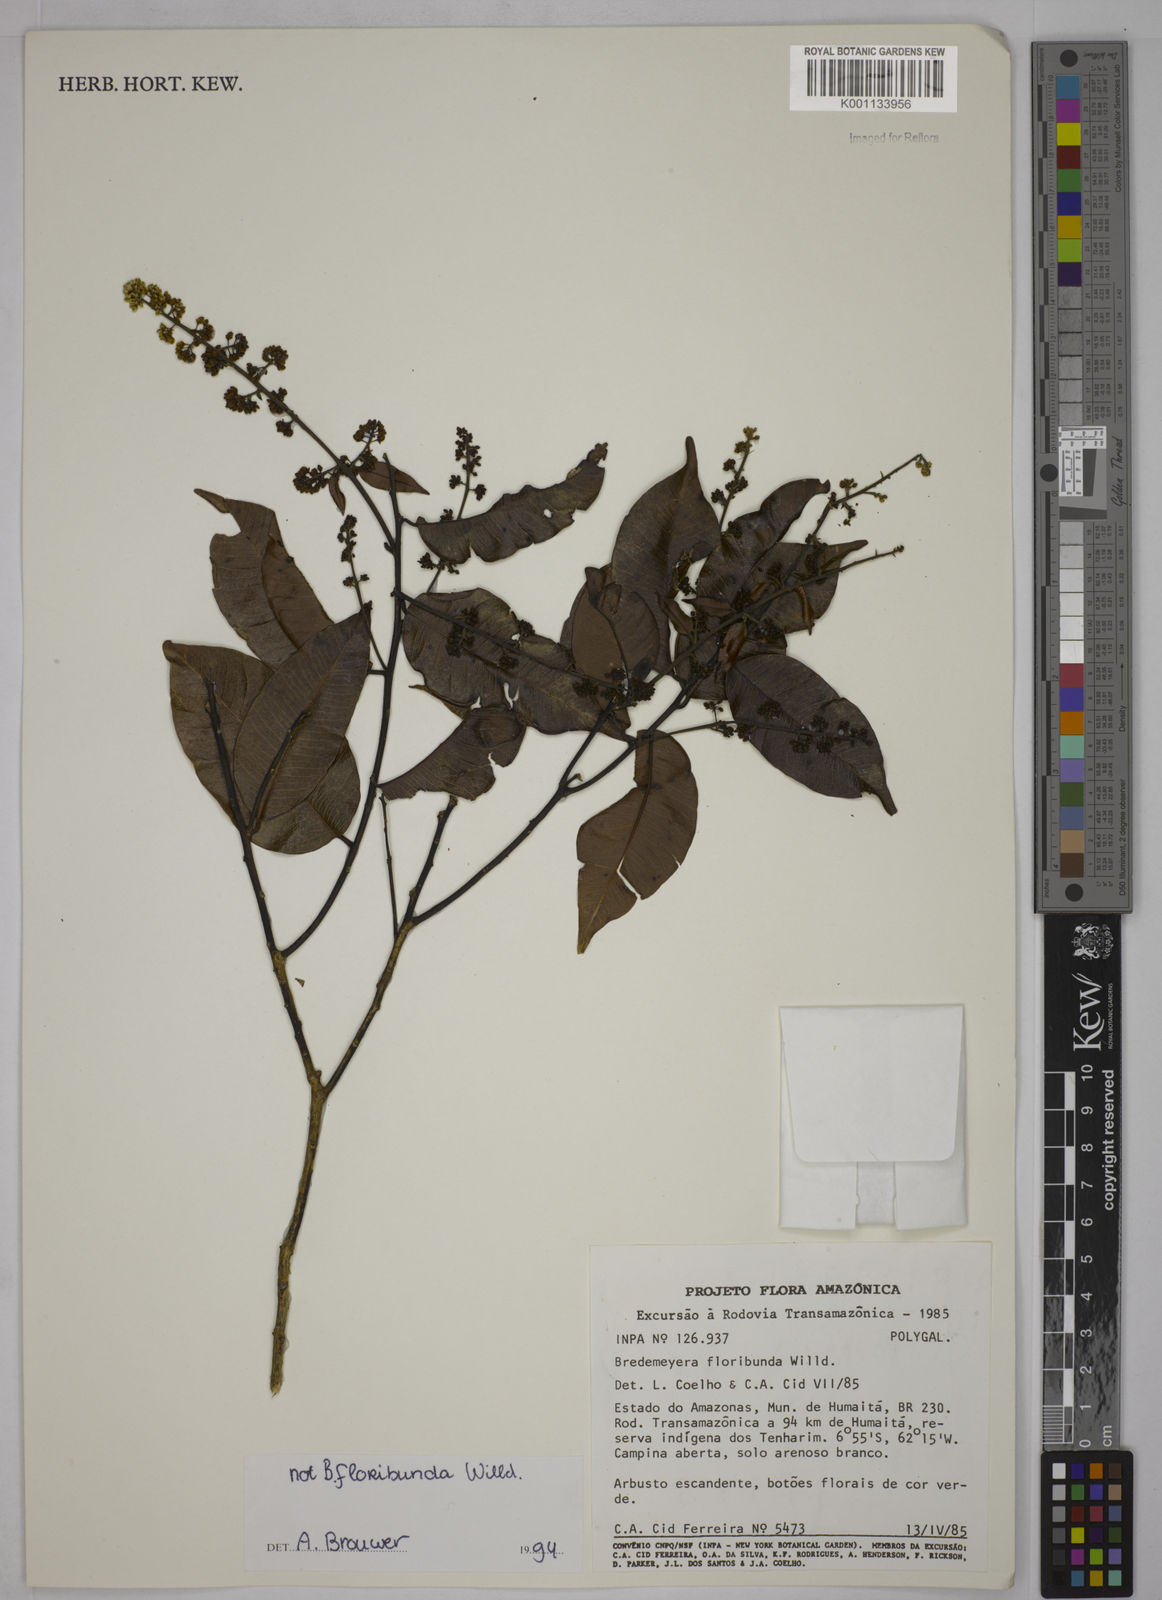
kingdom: Plantae
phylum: Tracheophyta
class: Magnoliopsida
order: Fabales
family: Polygalaceae
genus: Bredemeyera
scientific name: Bredemeyera
